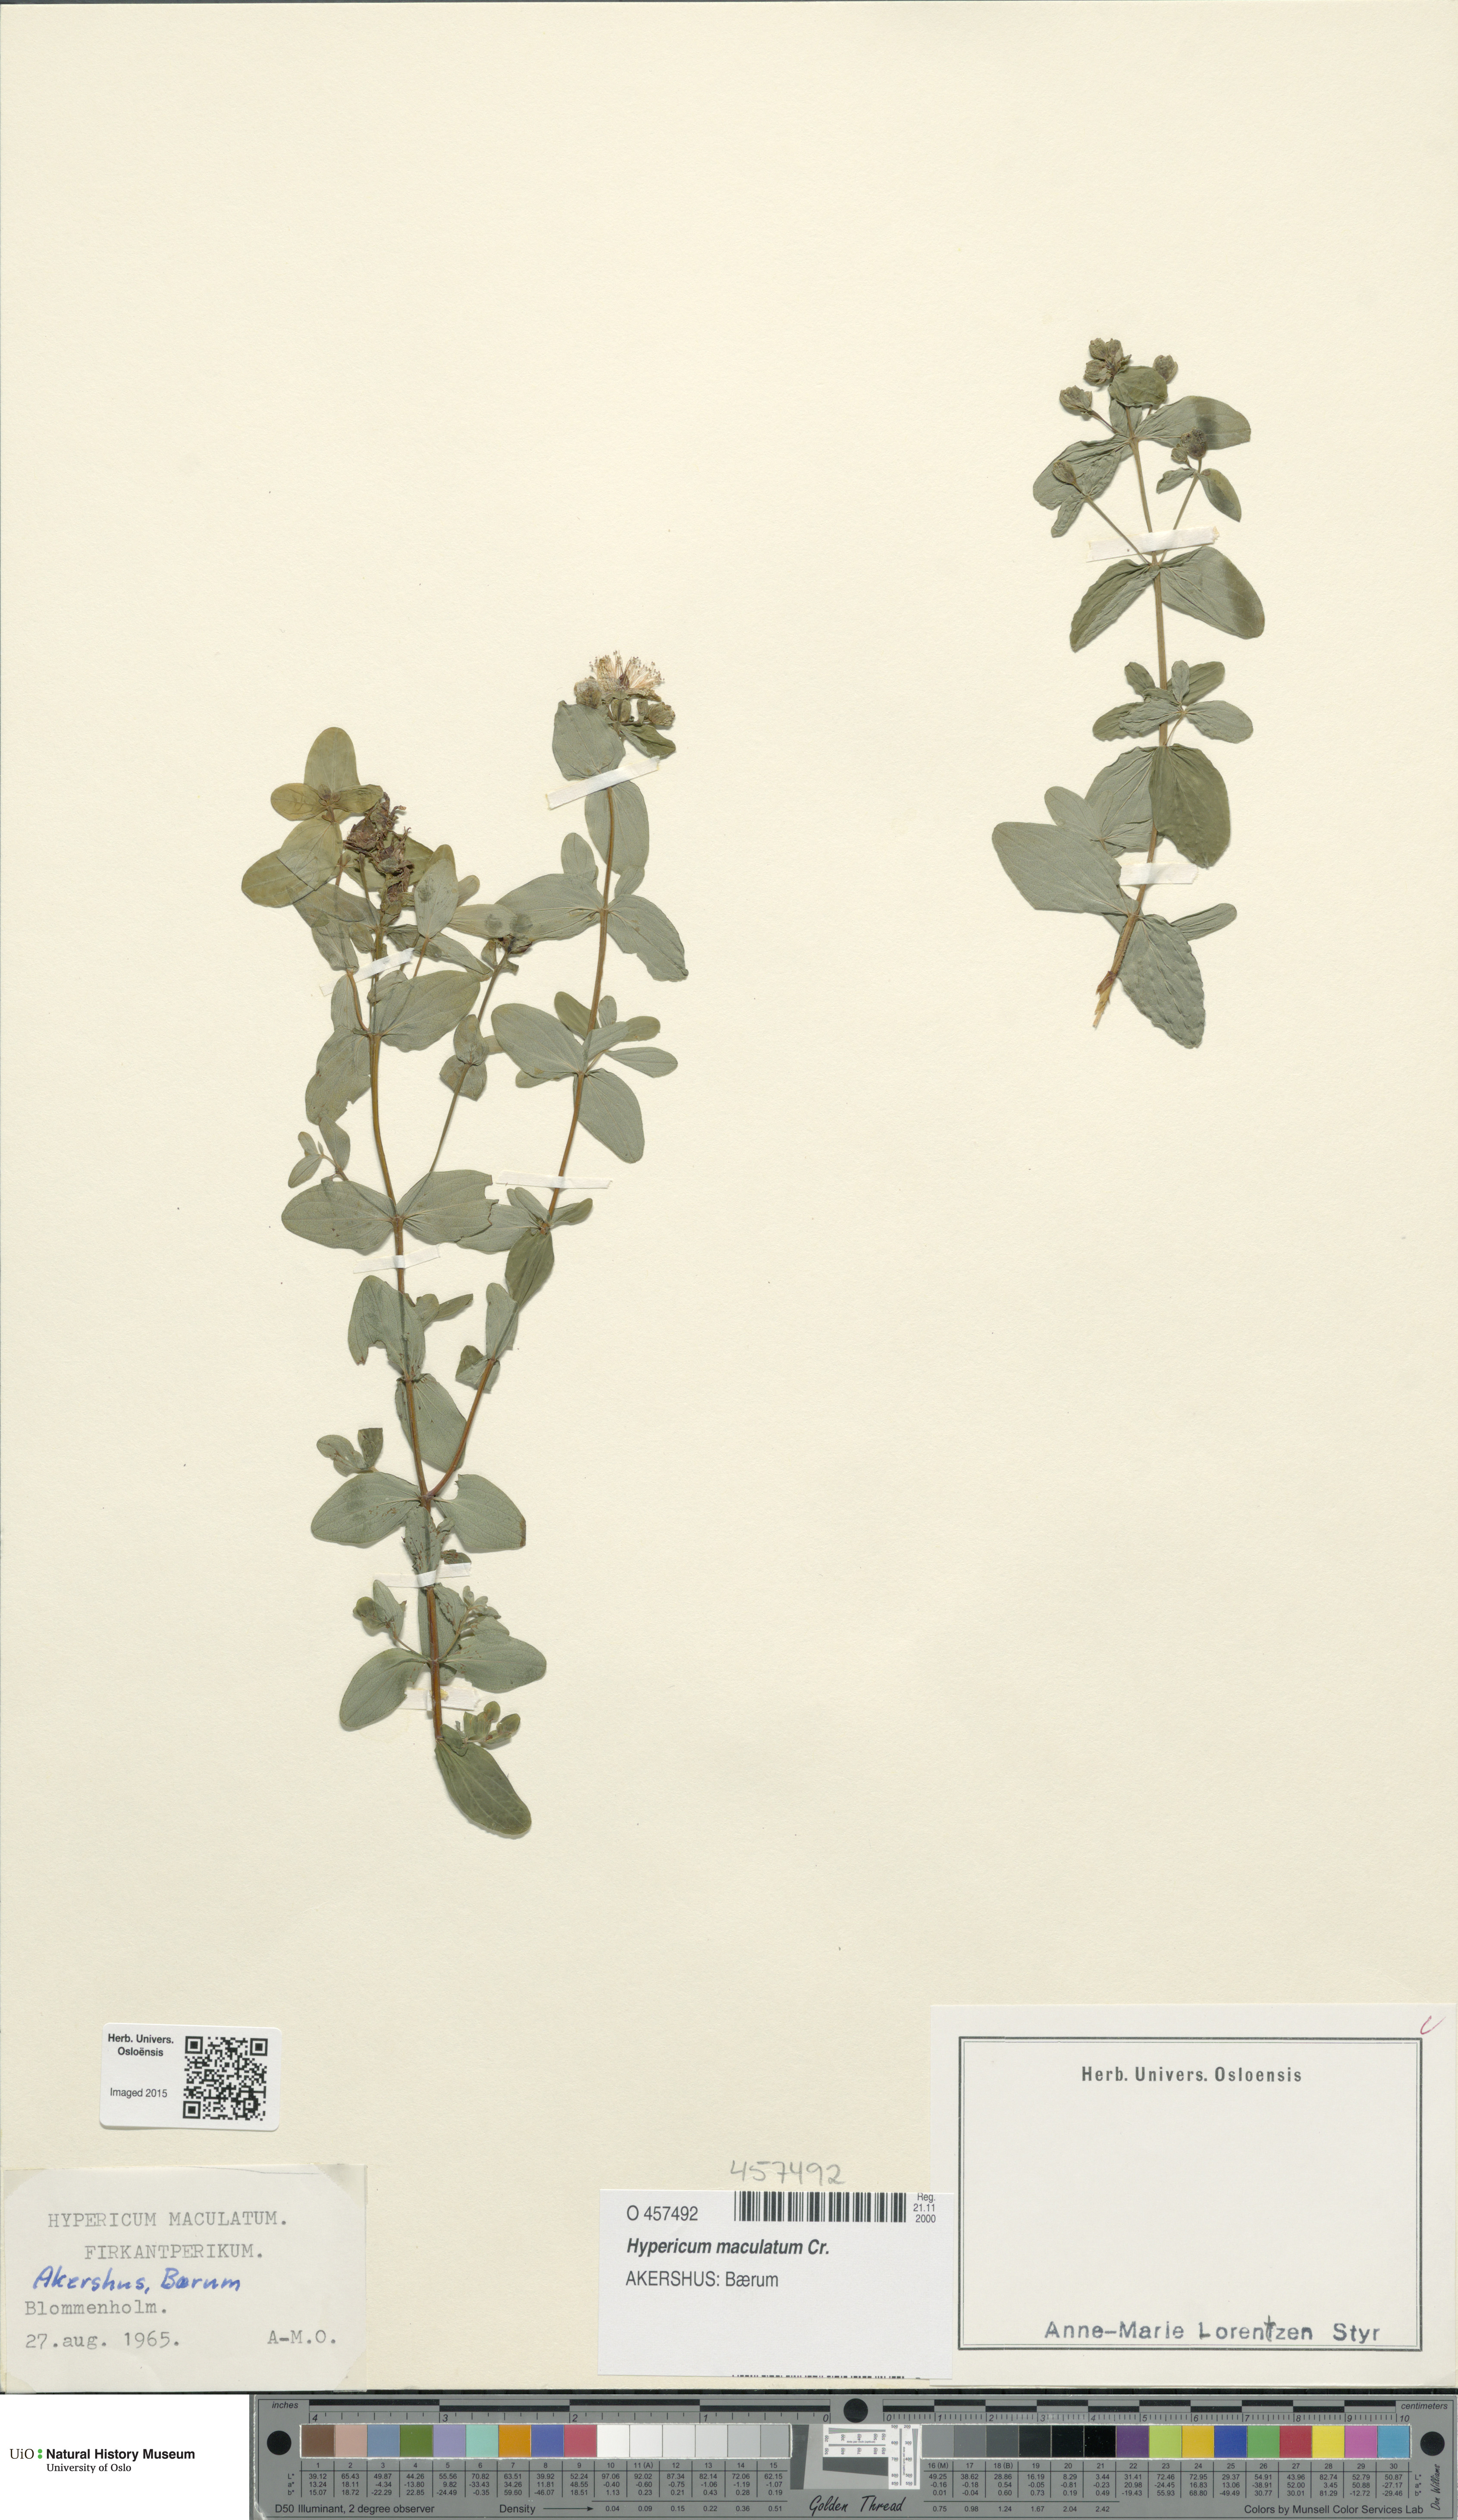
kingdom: Plantae
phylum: Tracheophyta
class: Magnoliopsida
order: Malpighiales
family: Hypericaceae
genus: Hypericum
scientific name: Hypericum maculatum
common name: Imperforate st. john's-wort
